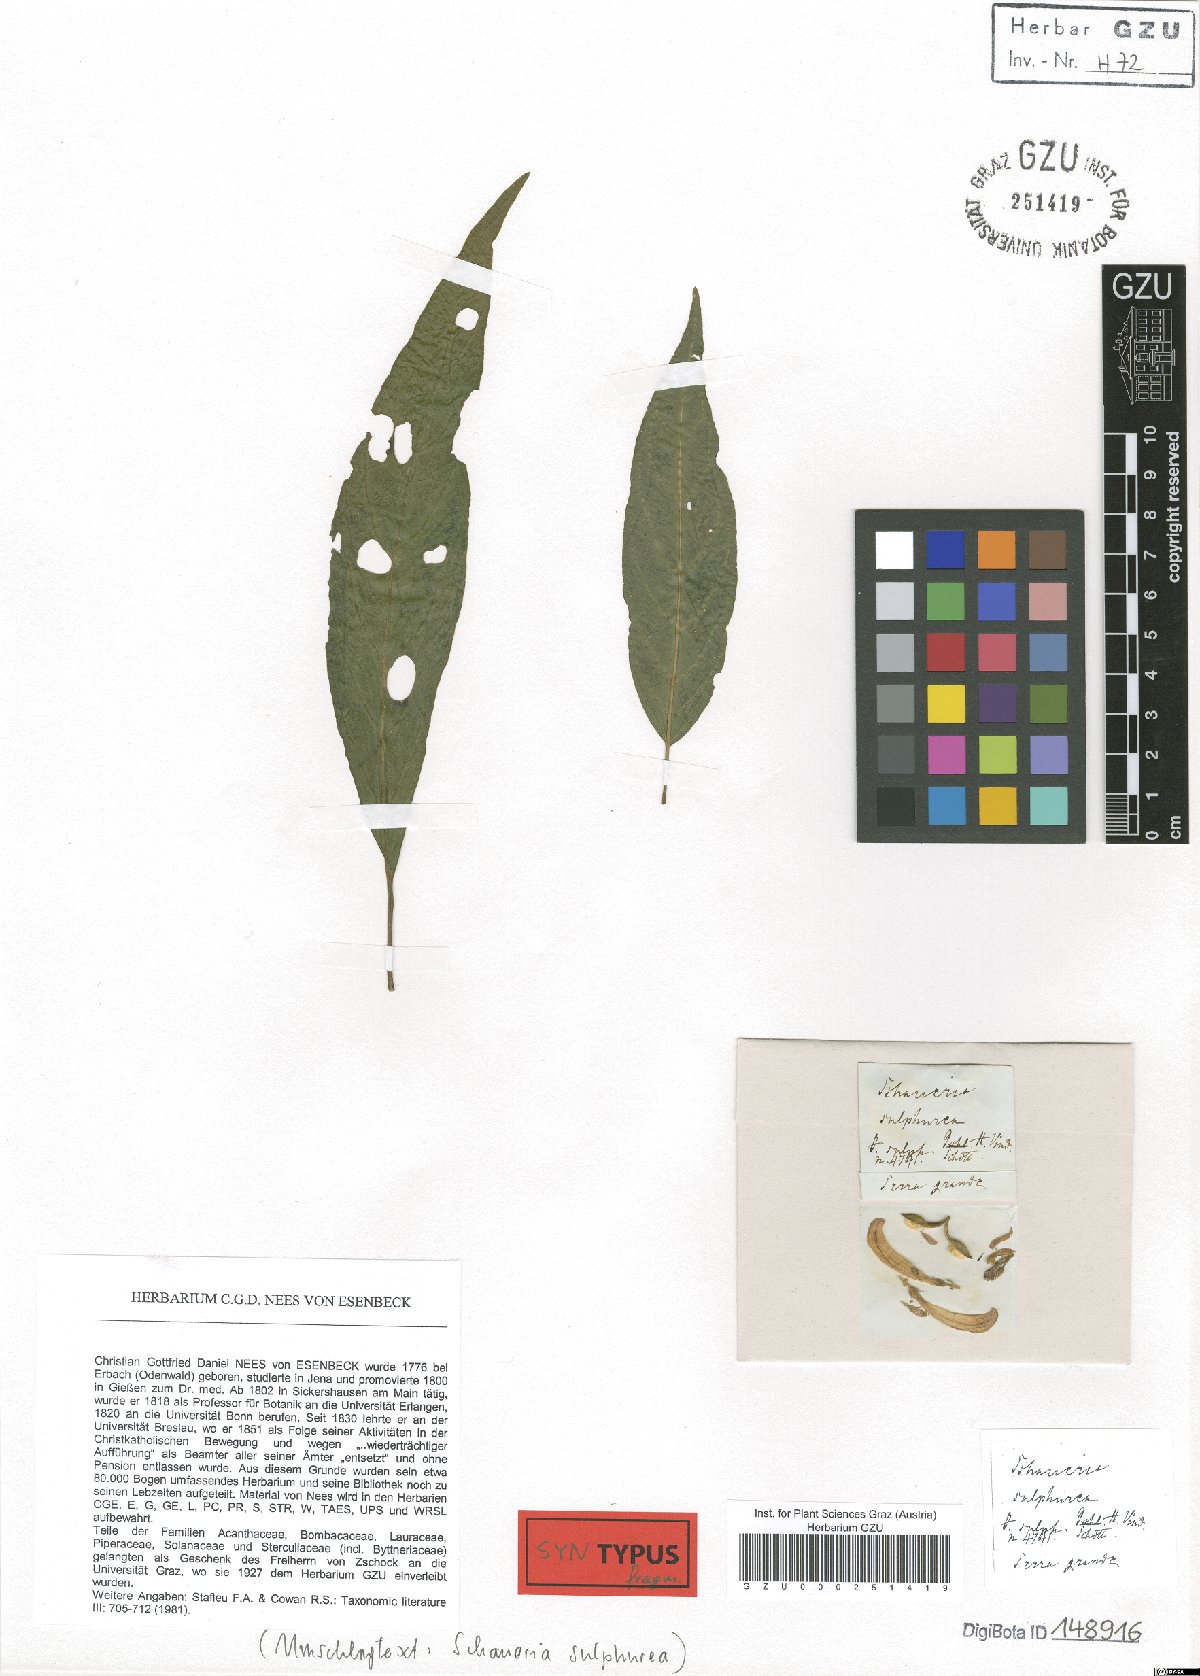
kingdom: Plantae
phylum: Tracheophyta
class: Magnoliopsida
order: Lamiales
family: Acanthaceae
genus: Schaueria
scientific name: Schaueria sulfurea
